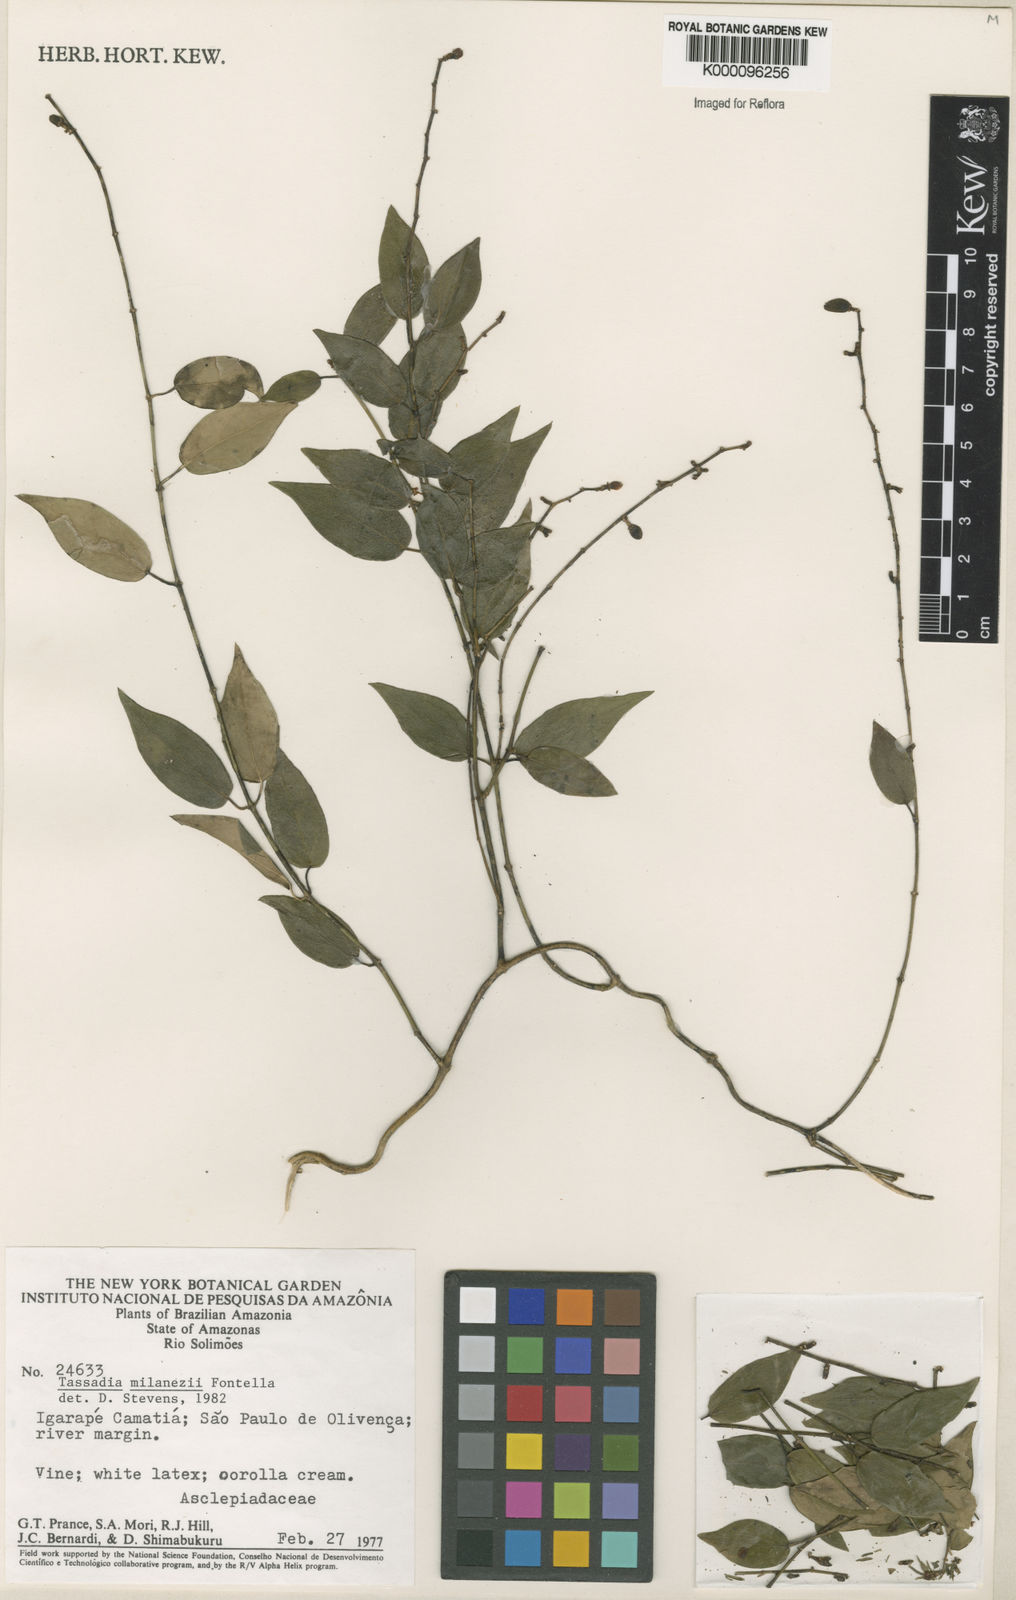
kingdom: Plantae
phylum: Tracheophyta
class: Magnoliopsida
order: Gentianales
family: Apocynaceae
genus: Tassadia
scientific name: Tassadia milanezii
